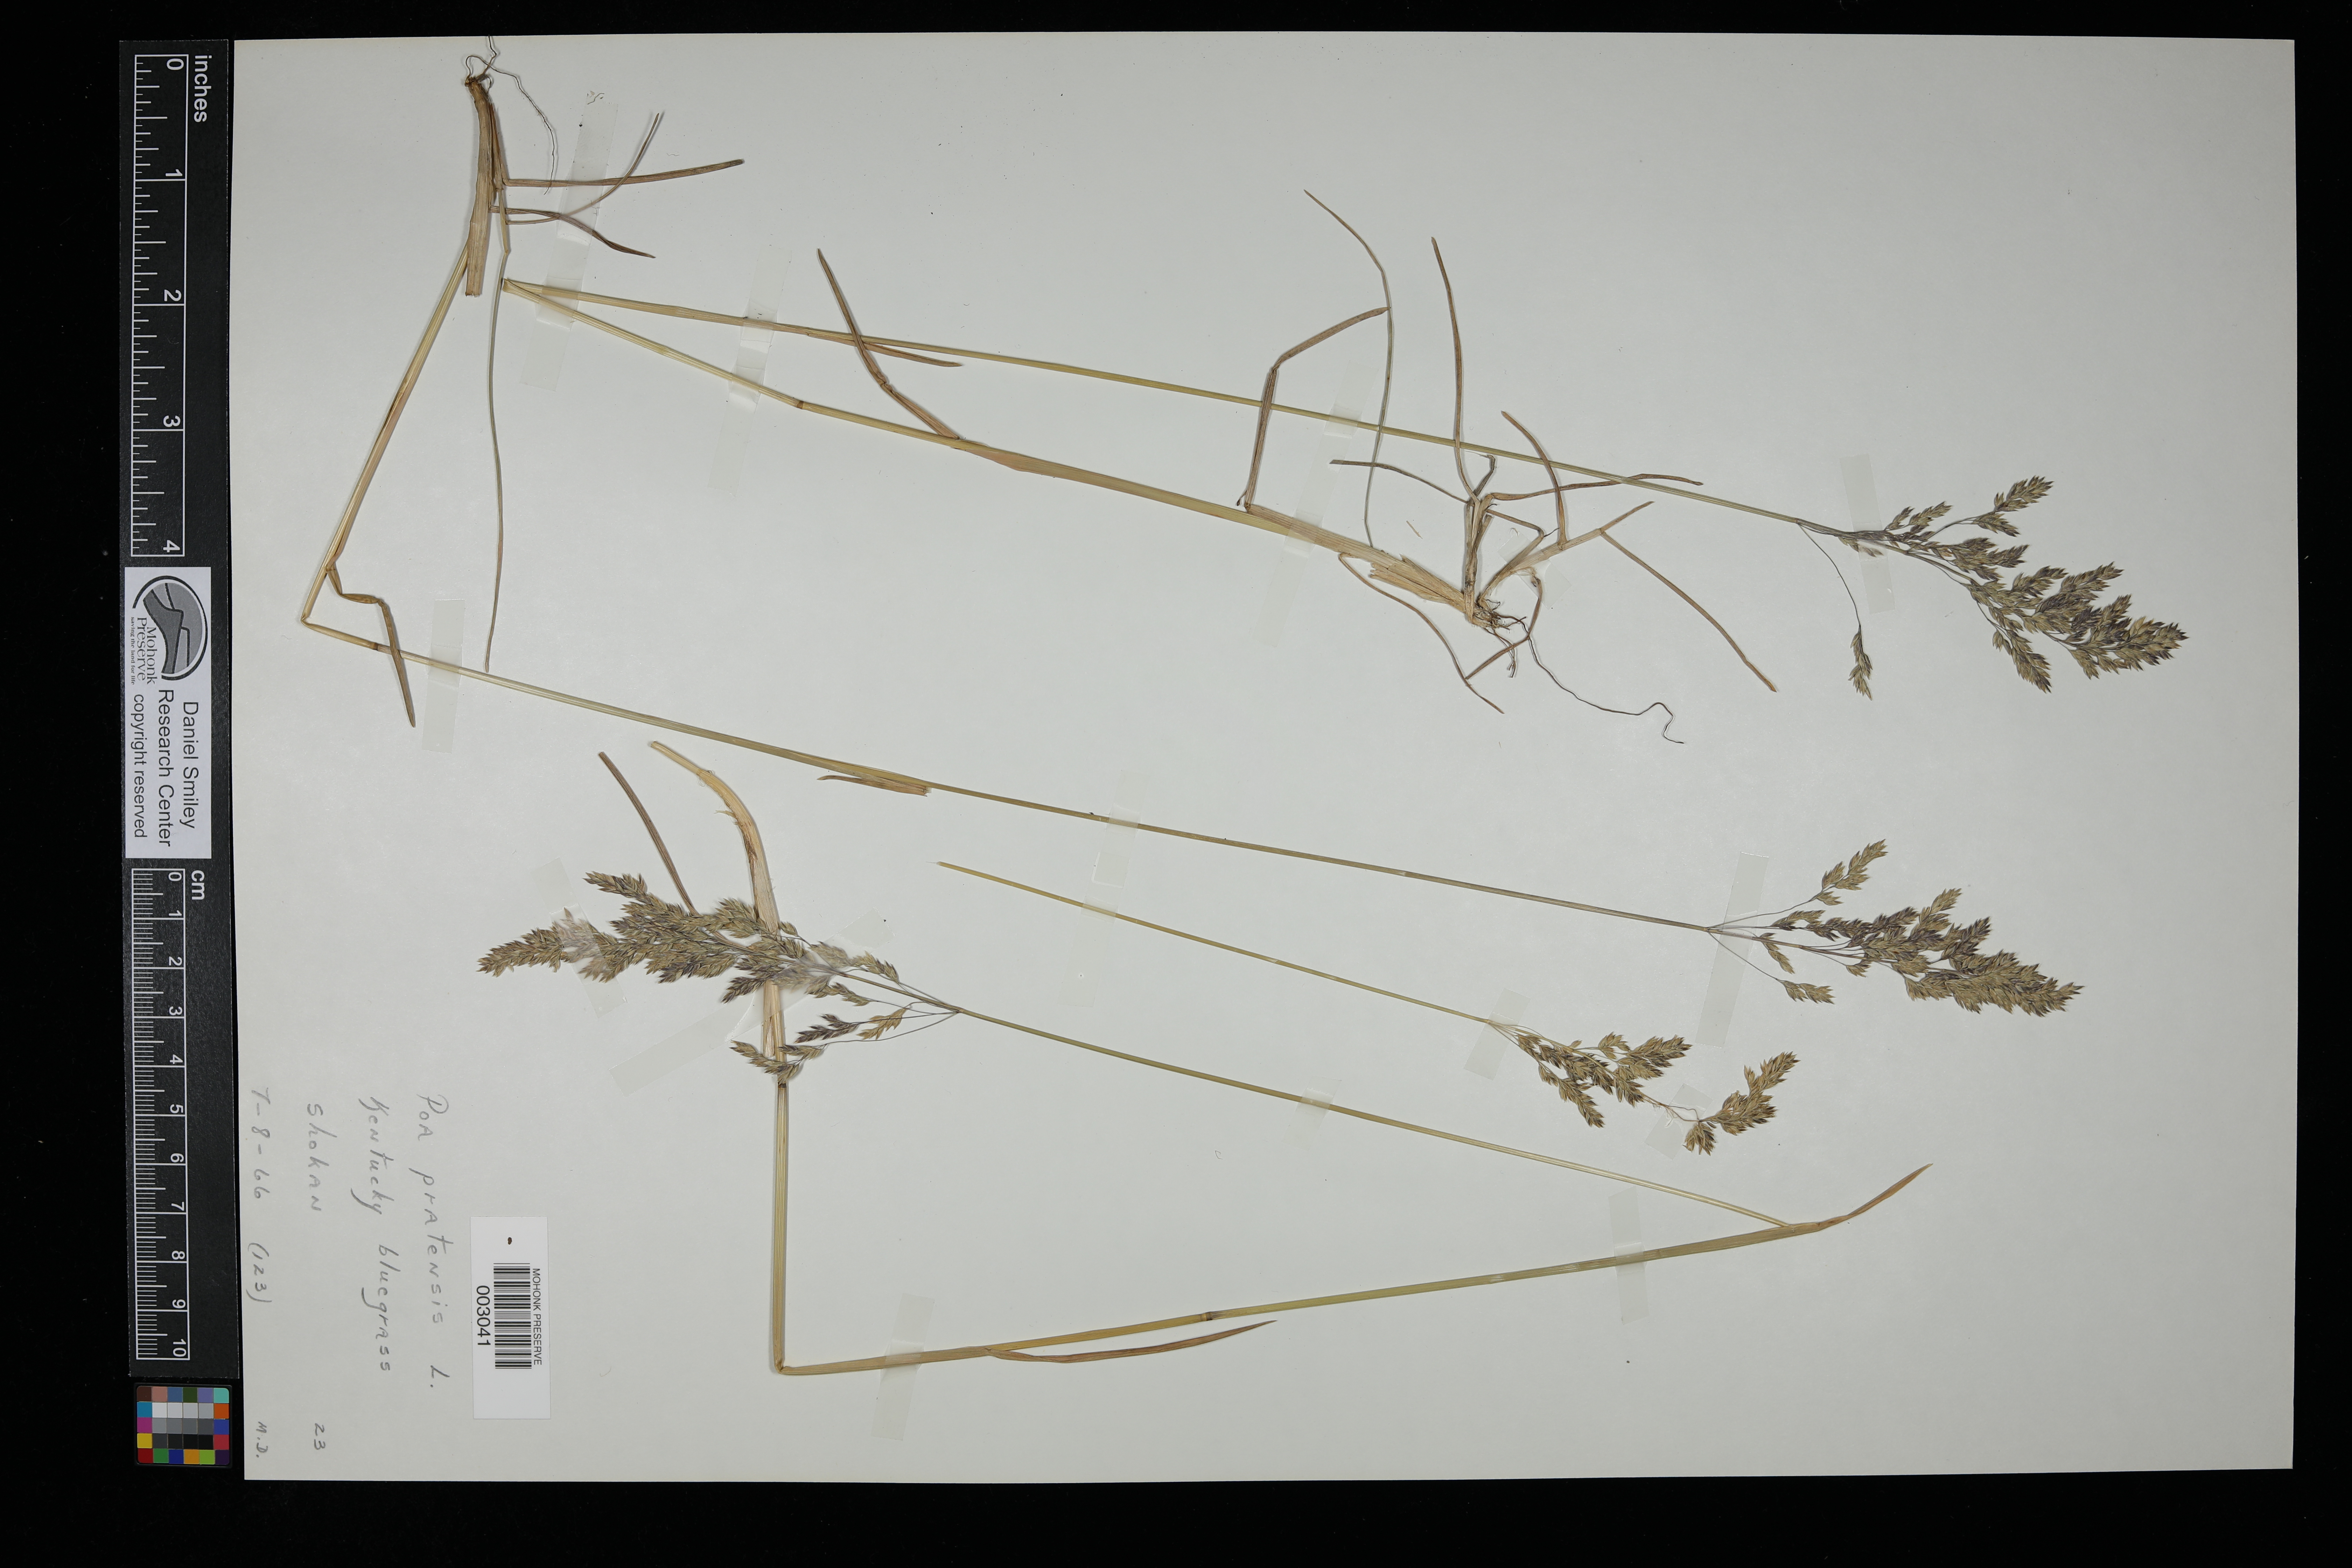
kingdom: Plantae
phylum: Tracheophyta
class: Liliopsida
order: Poales
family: Poaceae
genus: Poa
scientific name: Poa pratensis
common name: Kentucky bluegrass
